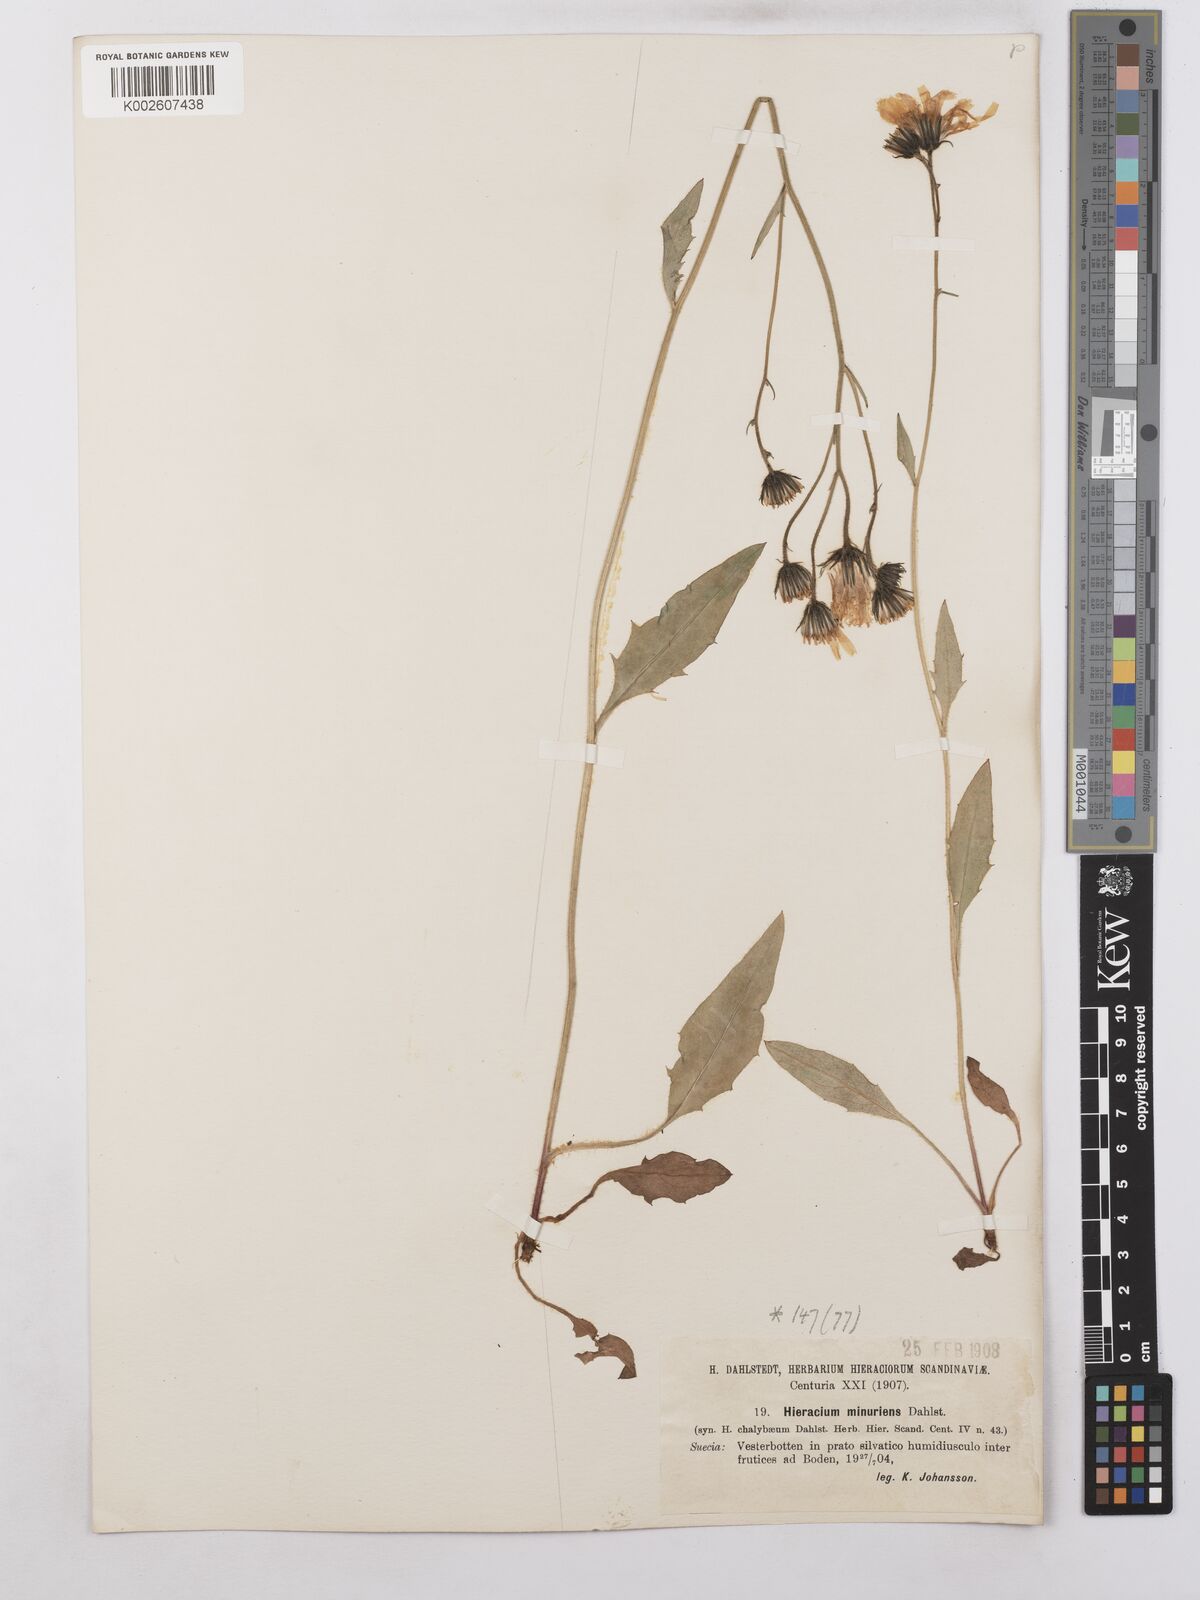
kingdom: Plantae
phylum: Tracheophyta
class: Magnoliopsida
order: Asterales
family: Asteraceae
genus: Hieracium
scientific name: Hieracium caesium
